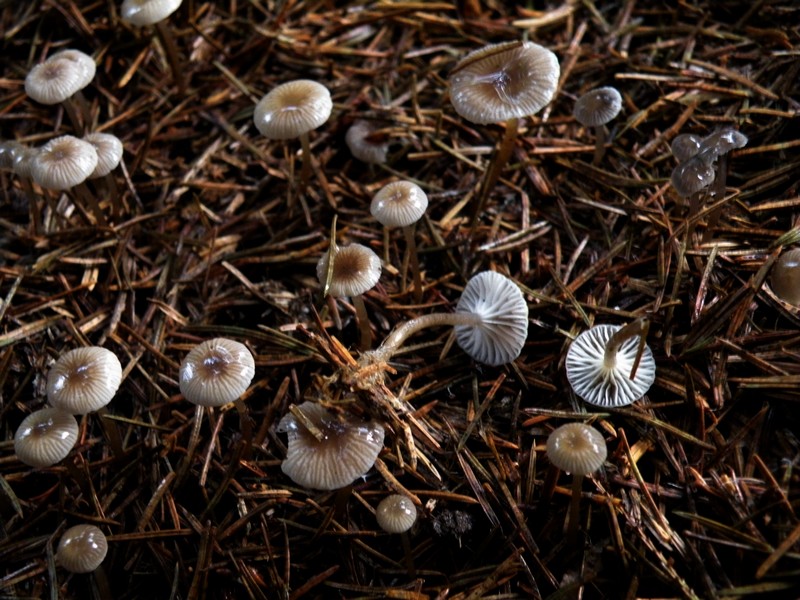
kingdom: Fungi
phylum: Basidiomycota
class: Agaricomycetes
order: Agaricales
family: Mycenaceae
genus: Mycena
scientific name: Mycena vulgaris
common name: klæbrig huesvamp
